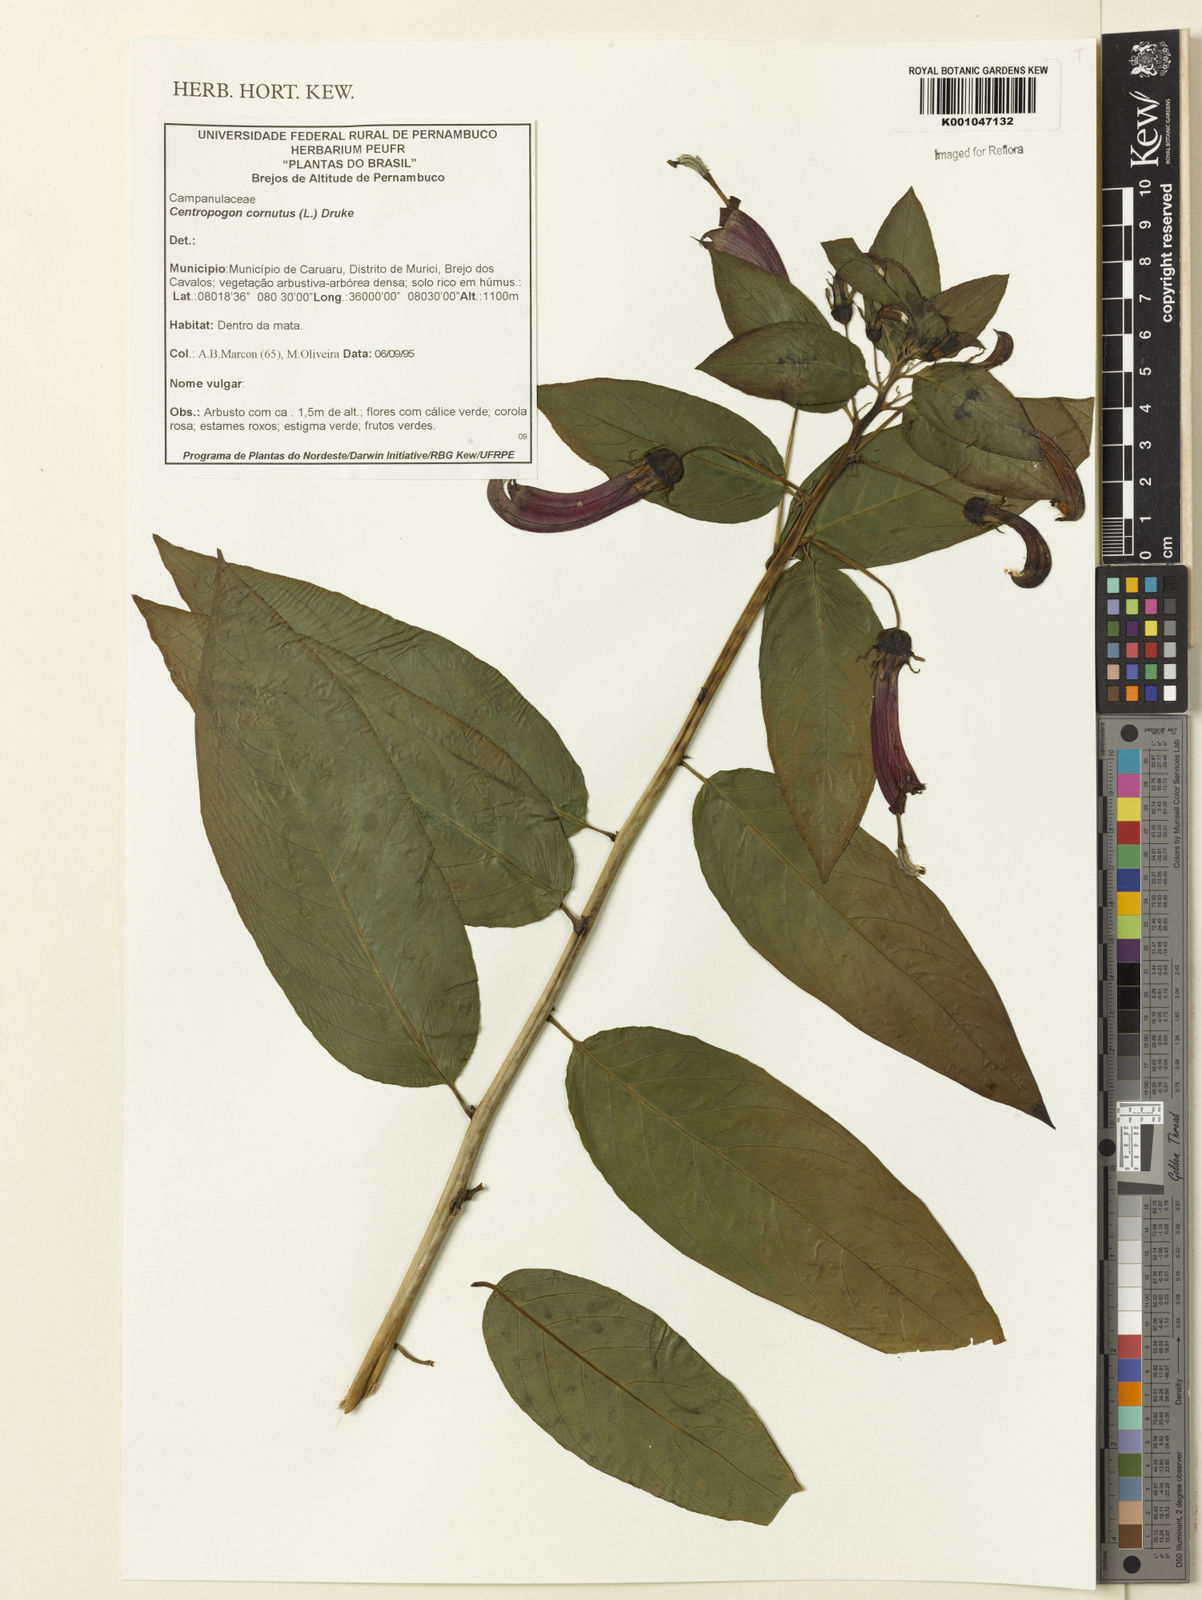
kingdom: Plantae
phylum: Tracheophyta
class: Magnoliopsida
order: Asterales
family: Campanulaceae
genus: Centropogon
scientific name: Centropogon cornutus
